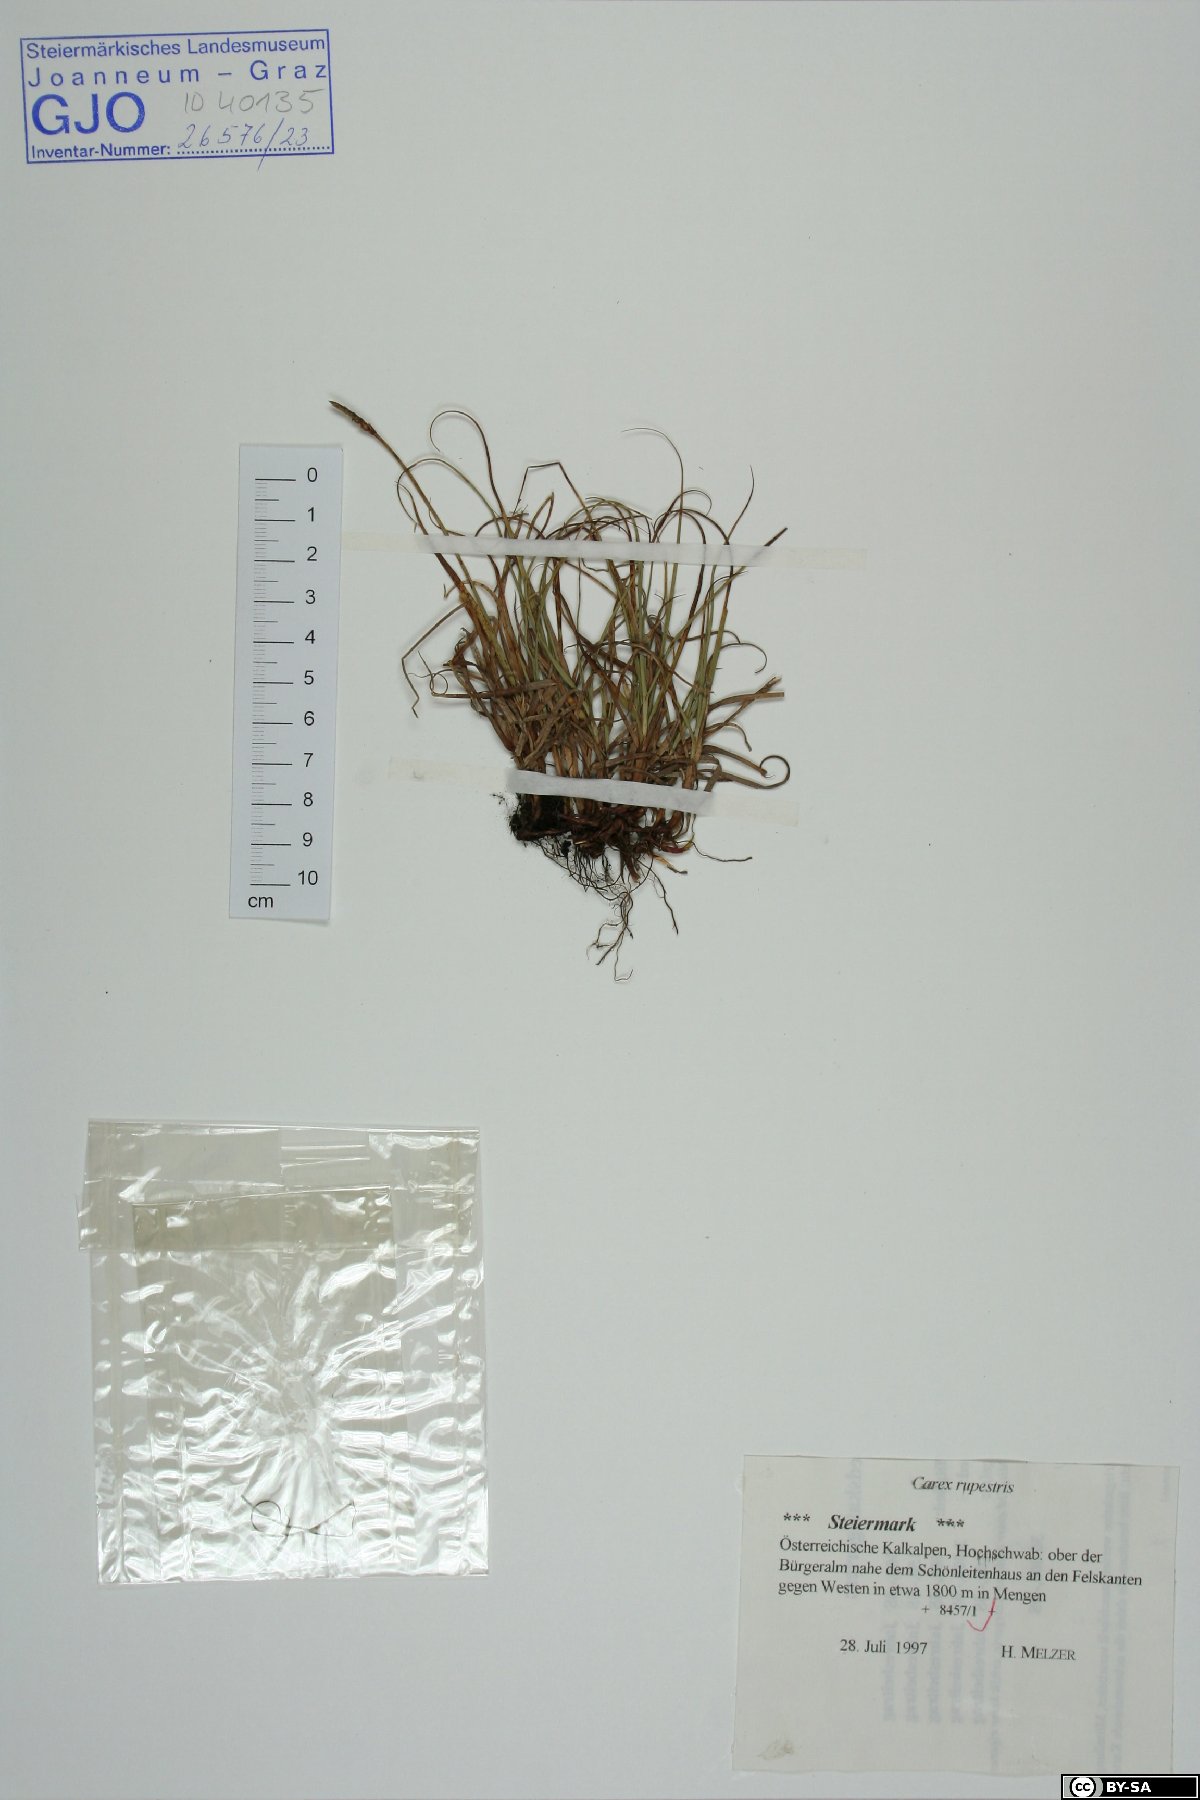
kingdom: Plantae
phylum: Tracheophyta
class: Liliopsida
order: Poales
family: Cyperaceae
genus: Carex
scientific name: Carex rupestris
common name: Rock sedge
